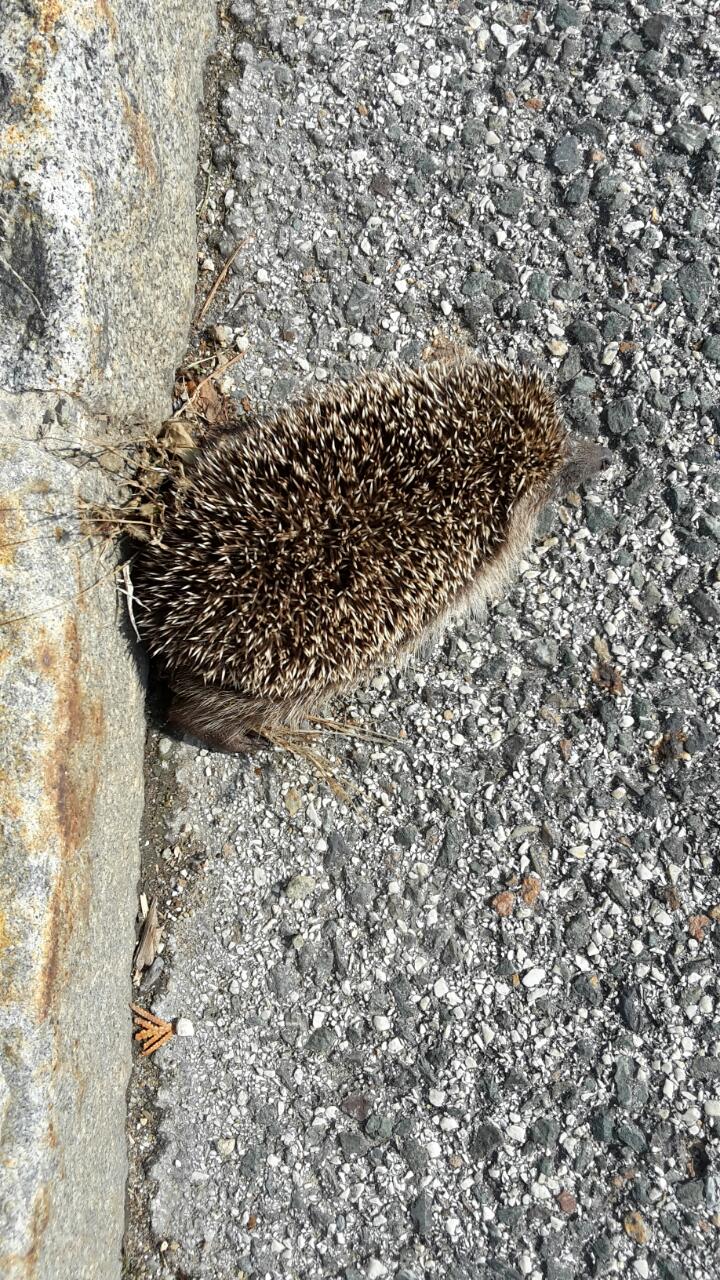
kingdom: Animalia
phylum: Chordata
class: Mammalia
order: Erinaceomorpha
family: Erinaceidae
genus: Erinaceus
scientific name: Erinaceus
